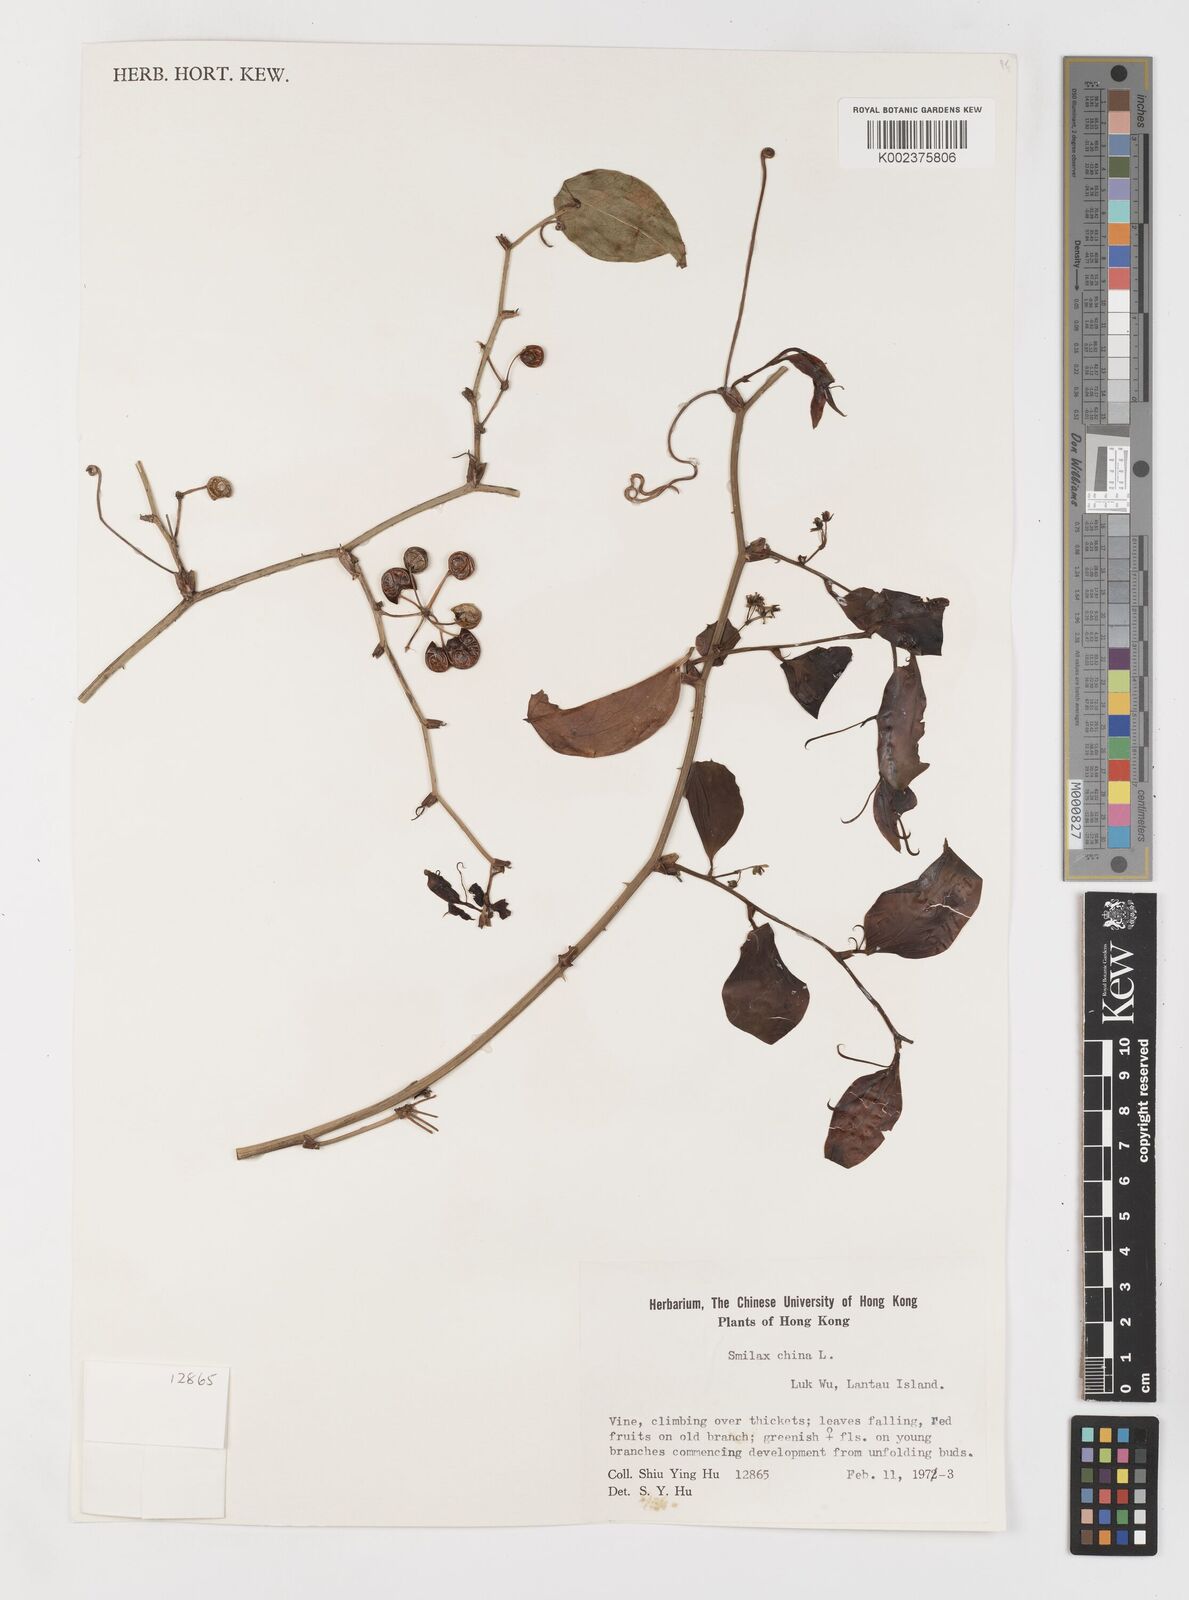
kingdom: Plantae
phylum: Tracheophyta
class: Liliopsida
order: Liliales
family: Smilacaceae
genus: Smilax
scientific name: Smilax china
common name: Chinaroot
